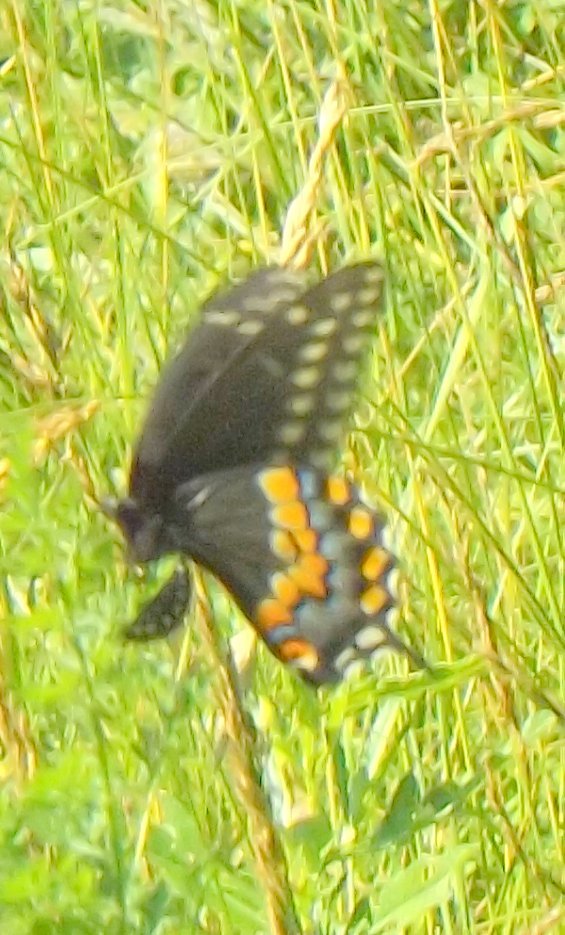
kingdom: Animalia
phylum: Arthropoda
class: Insecta
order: Lepidoptera
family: Papilionidae
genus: Papilio
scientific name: Papilio polyxenes
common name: Black Swallowtail
